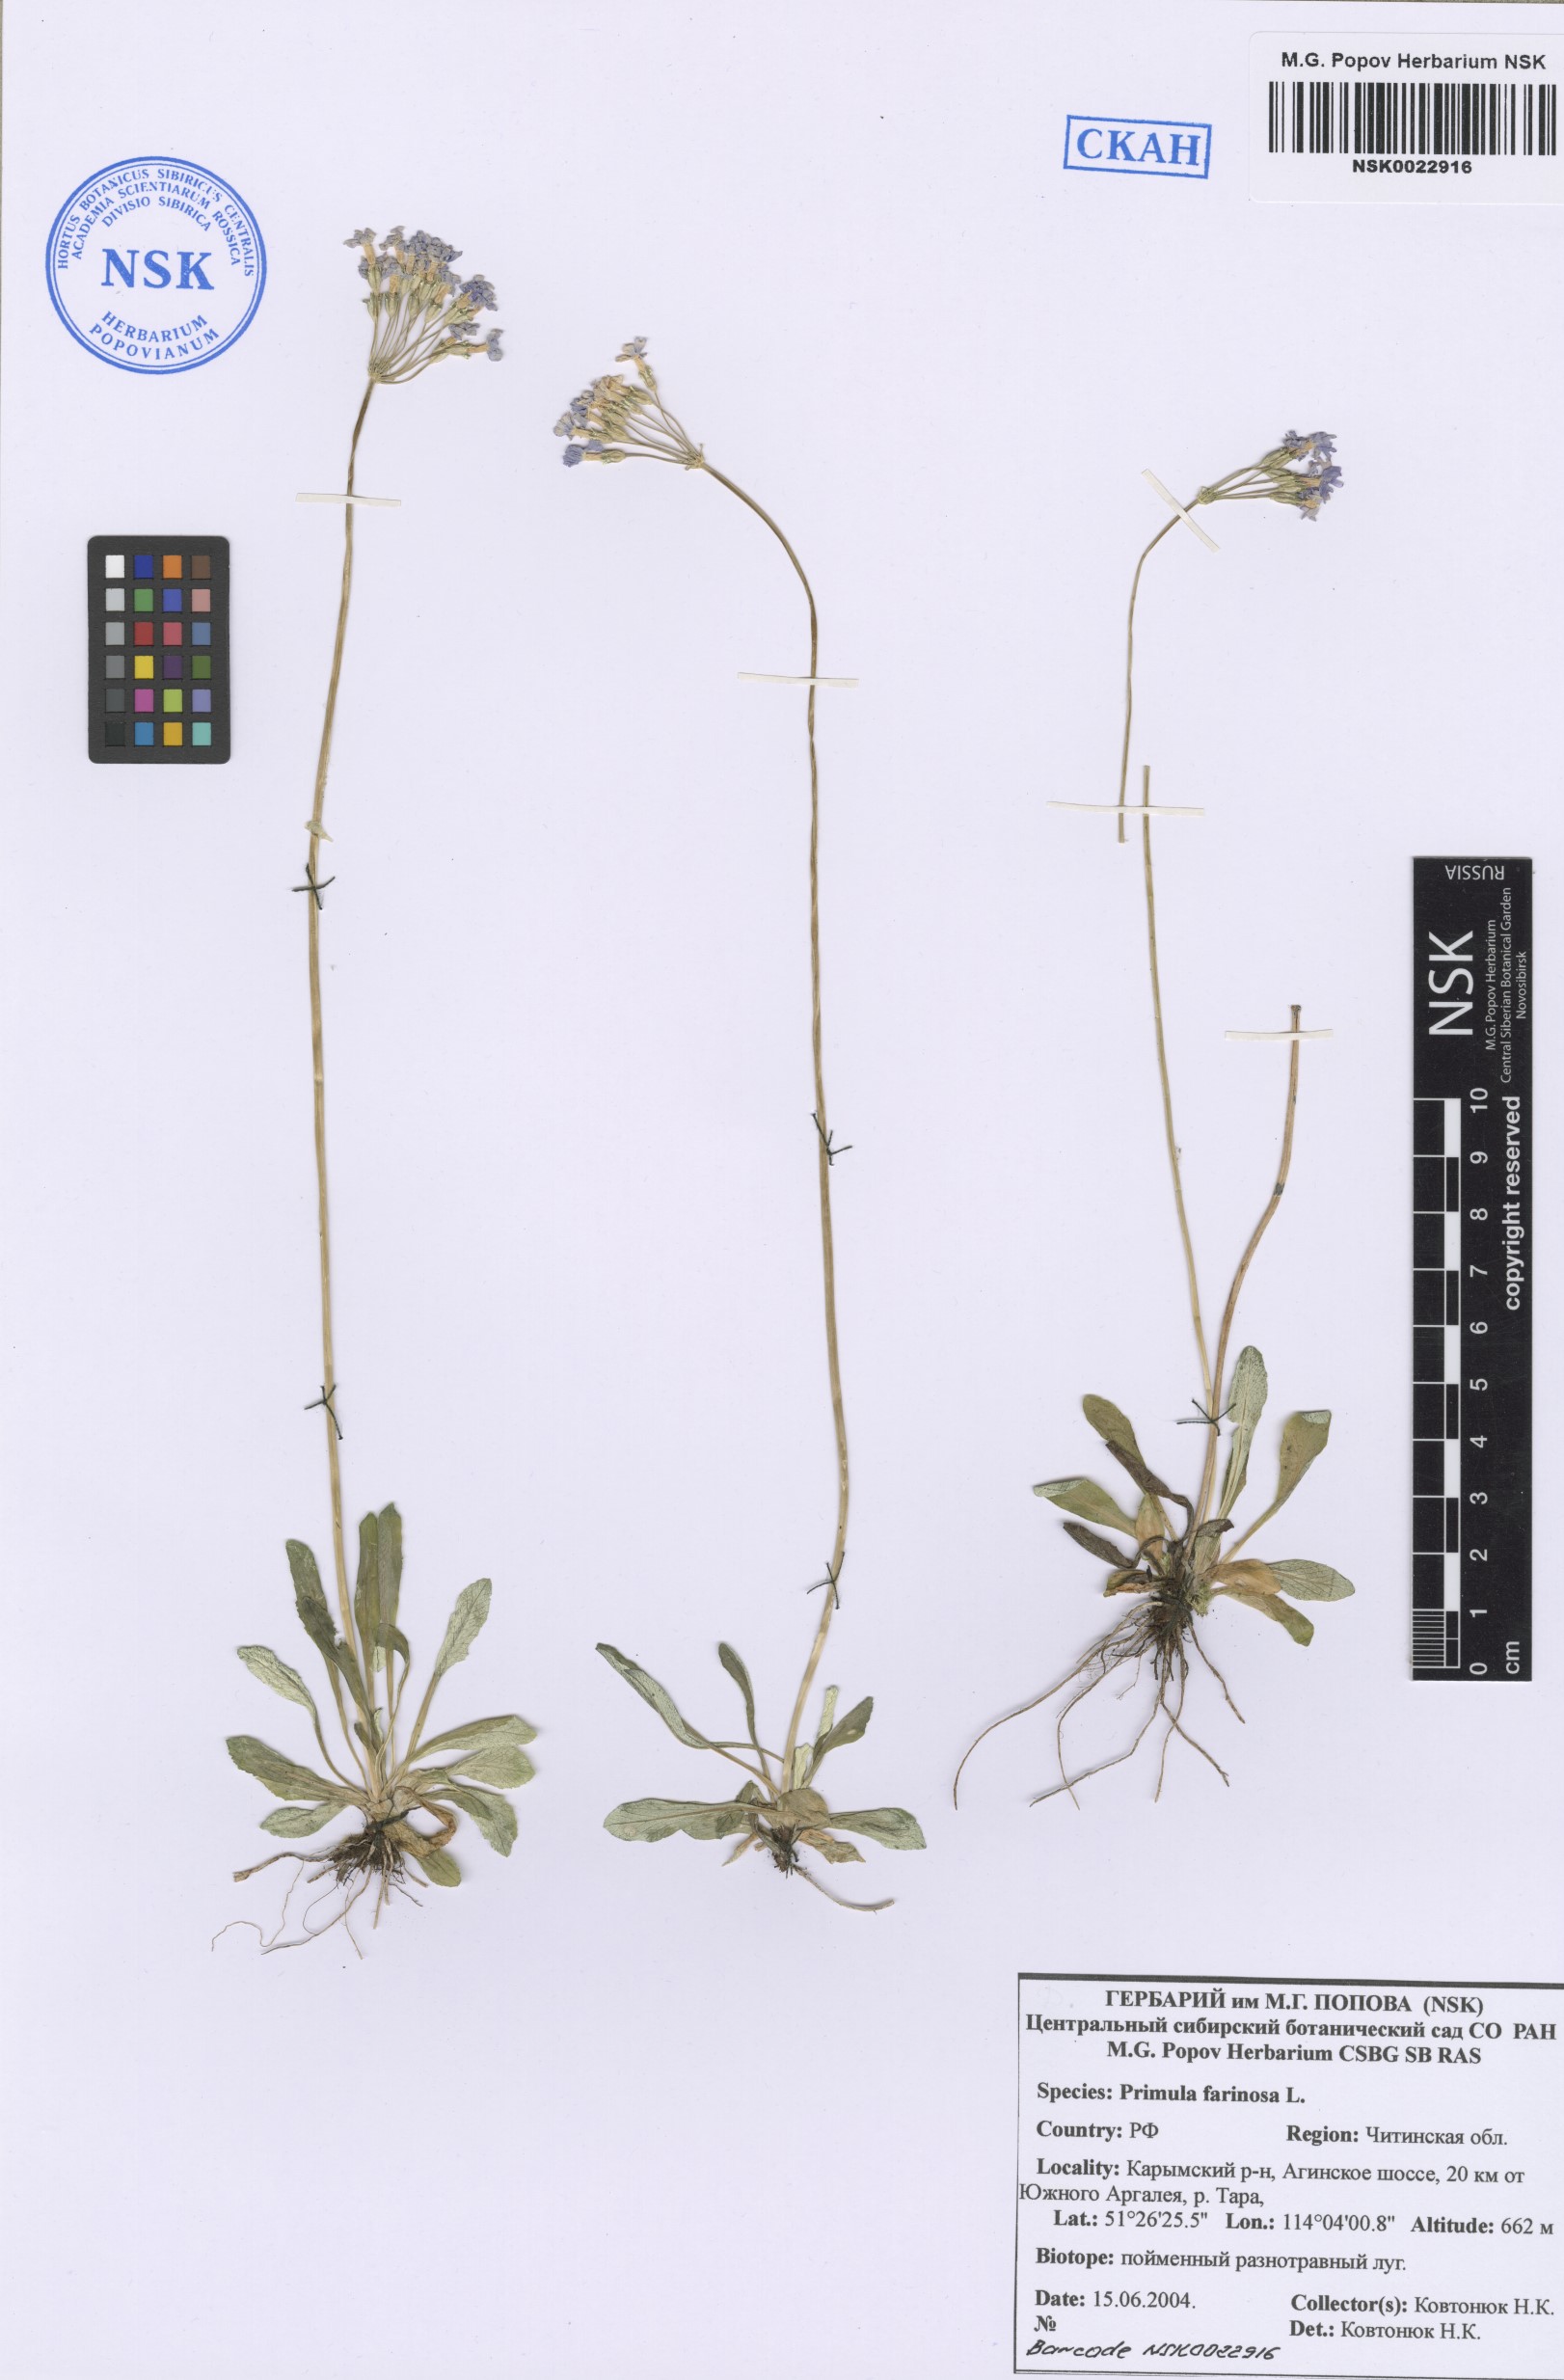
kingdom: Plantae
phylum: Tracheophyta
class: Magnoliopsida
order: Ericales
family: Primulaceae
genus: Primula
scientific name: Primula farinosa
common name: Bird's-eye primrose
